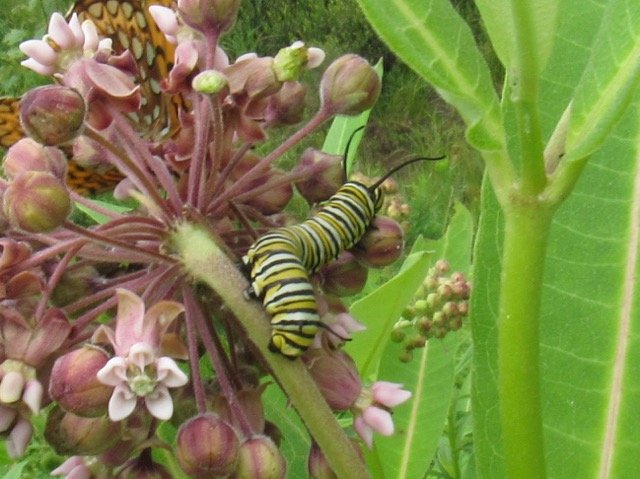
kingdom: Animalia
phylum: Arthropoda
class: Insecta
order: Lepidoptera
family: Nymphalidae
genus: Danaus
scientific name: Danaus plexippus
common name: Monarch
